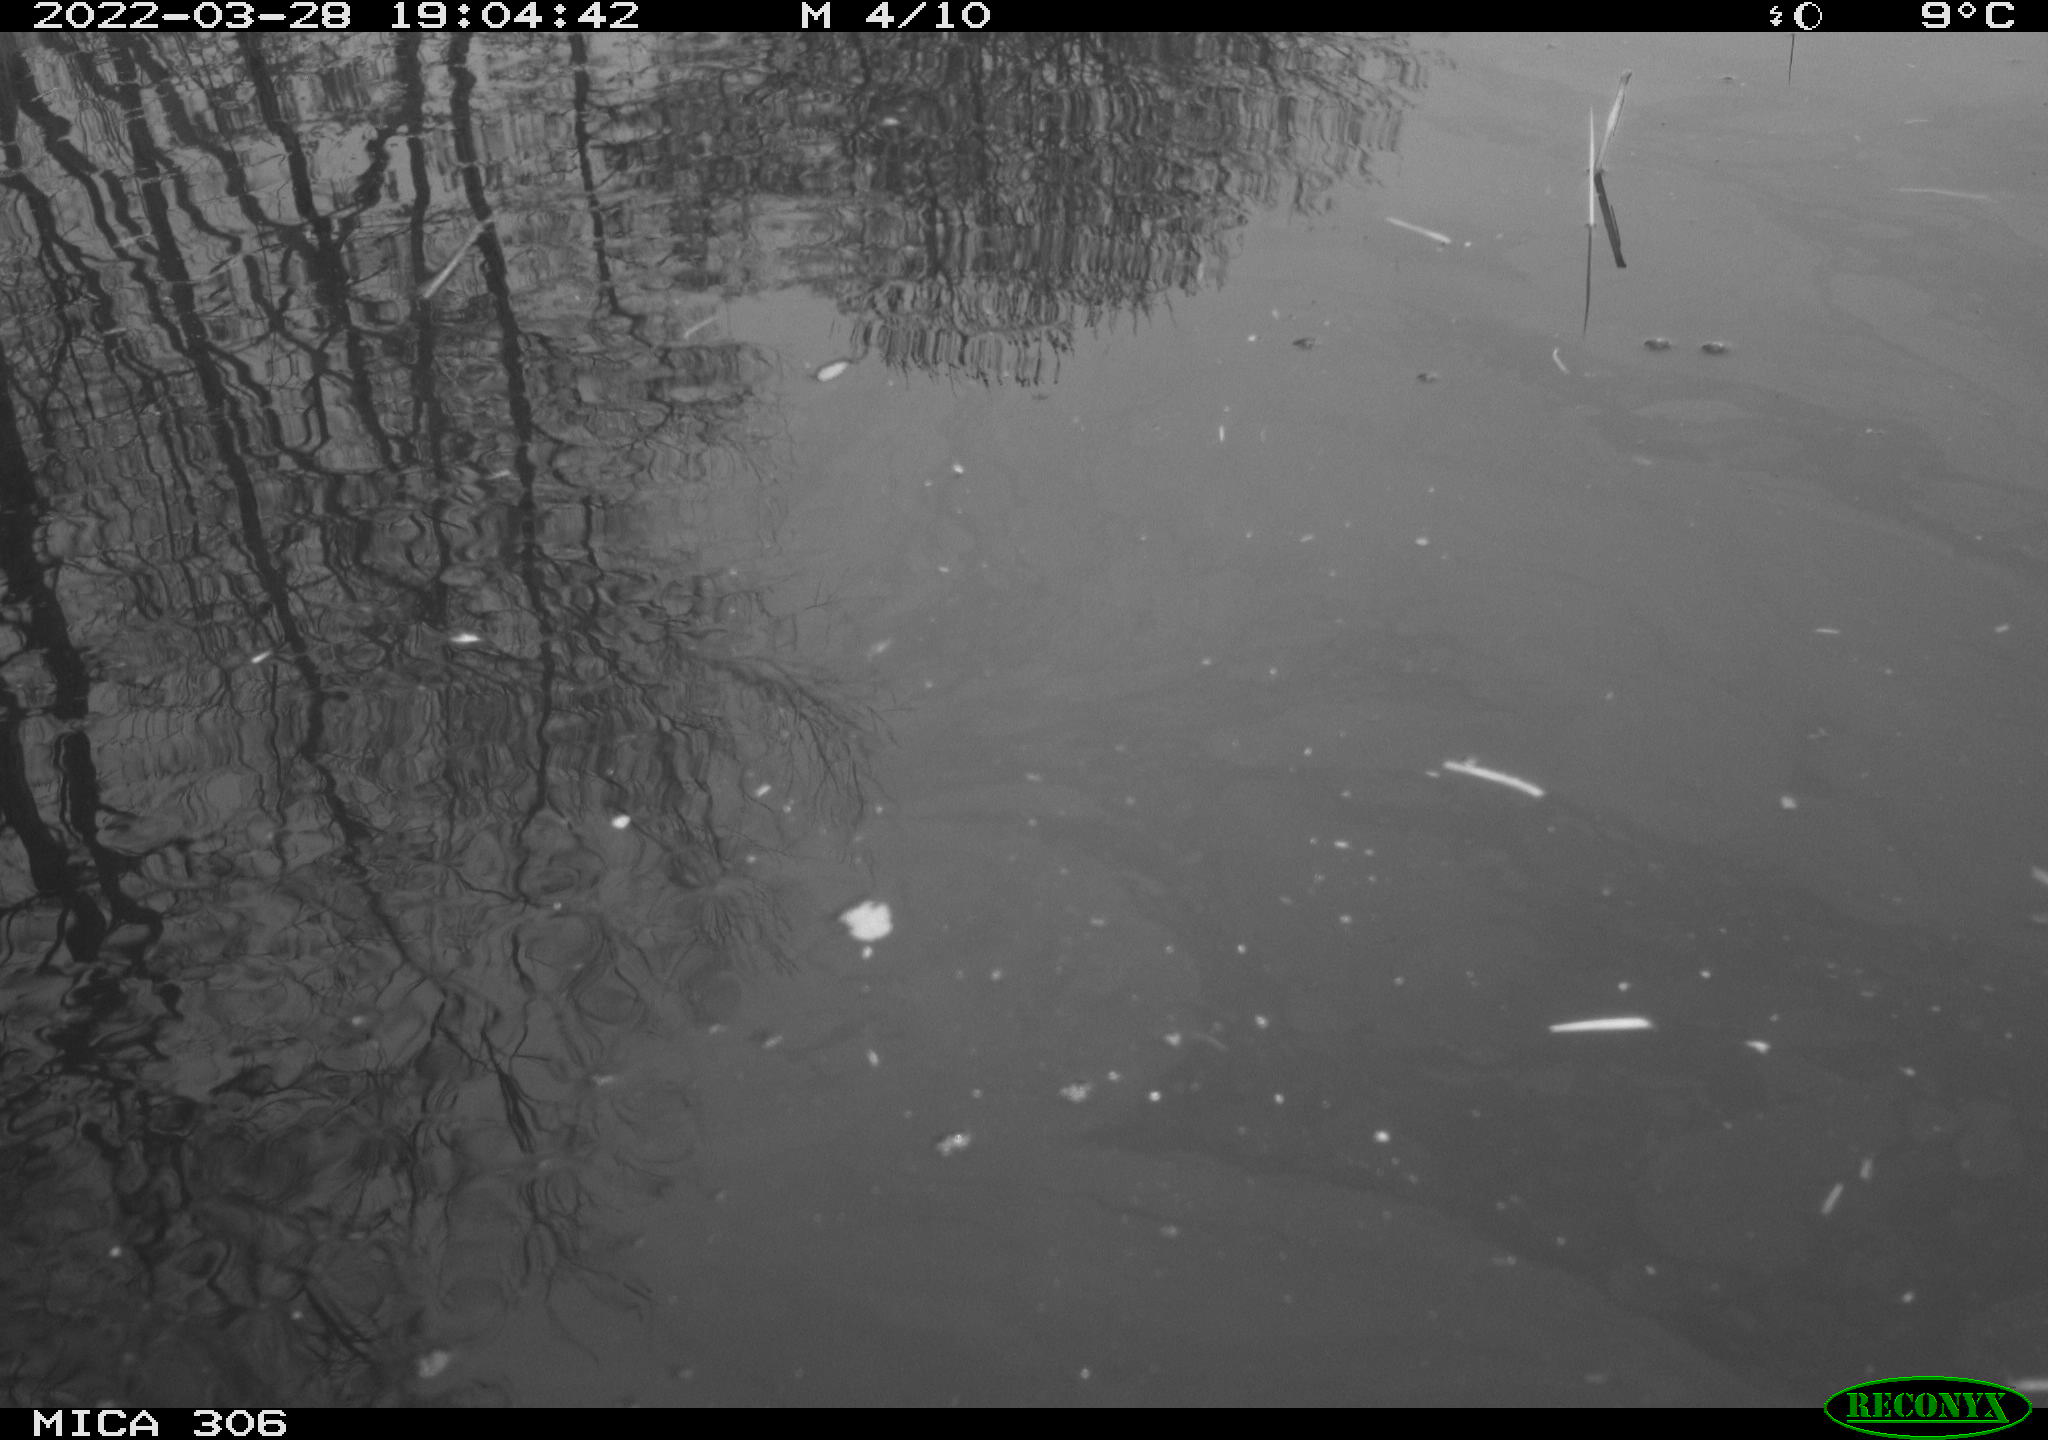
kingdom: Animalia
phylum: Chordata
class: Aves
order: Gruiformes
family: Rallidae
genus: Gallinula
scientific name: Gallinula chloropus
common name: Common moorhen
